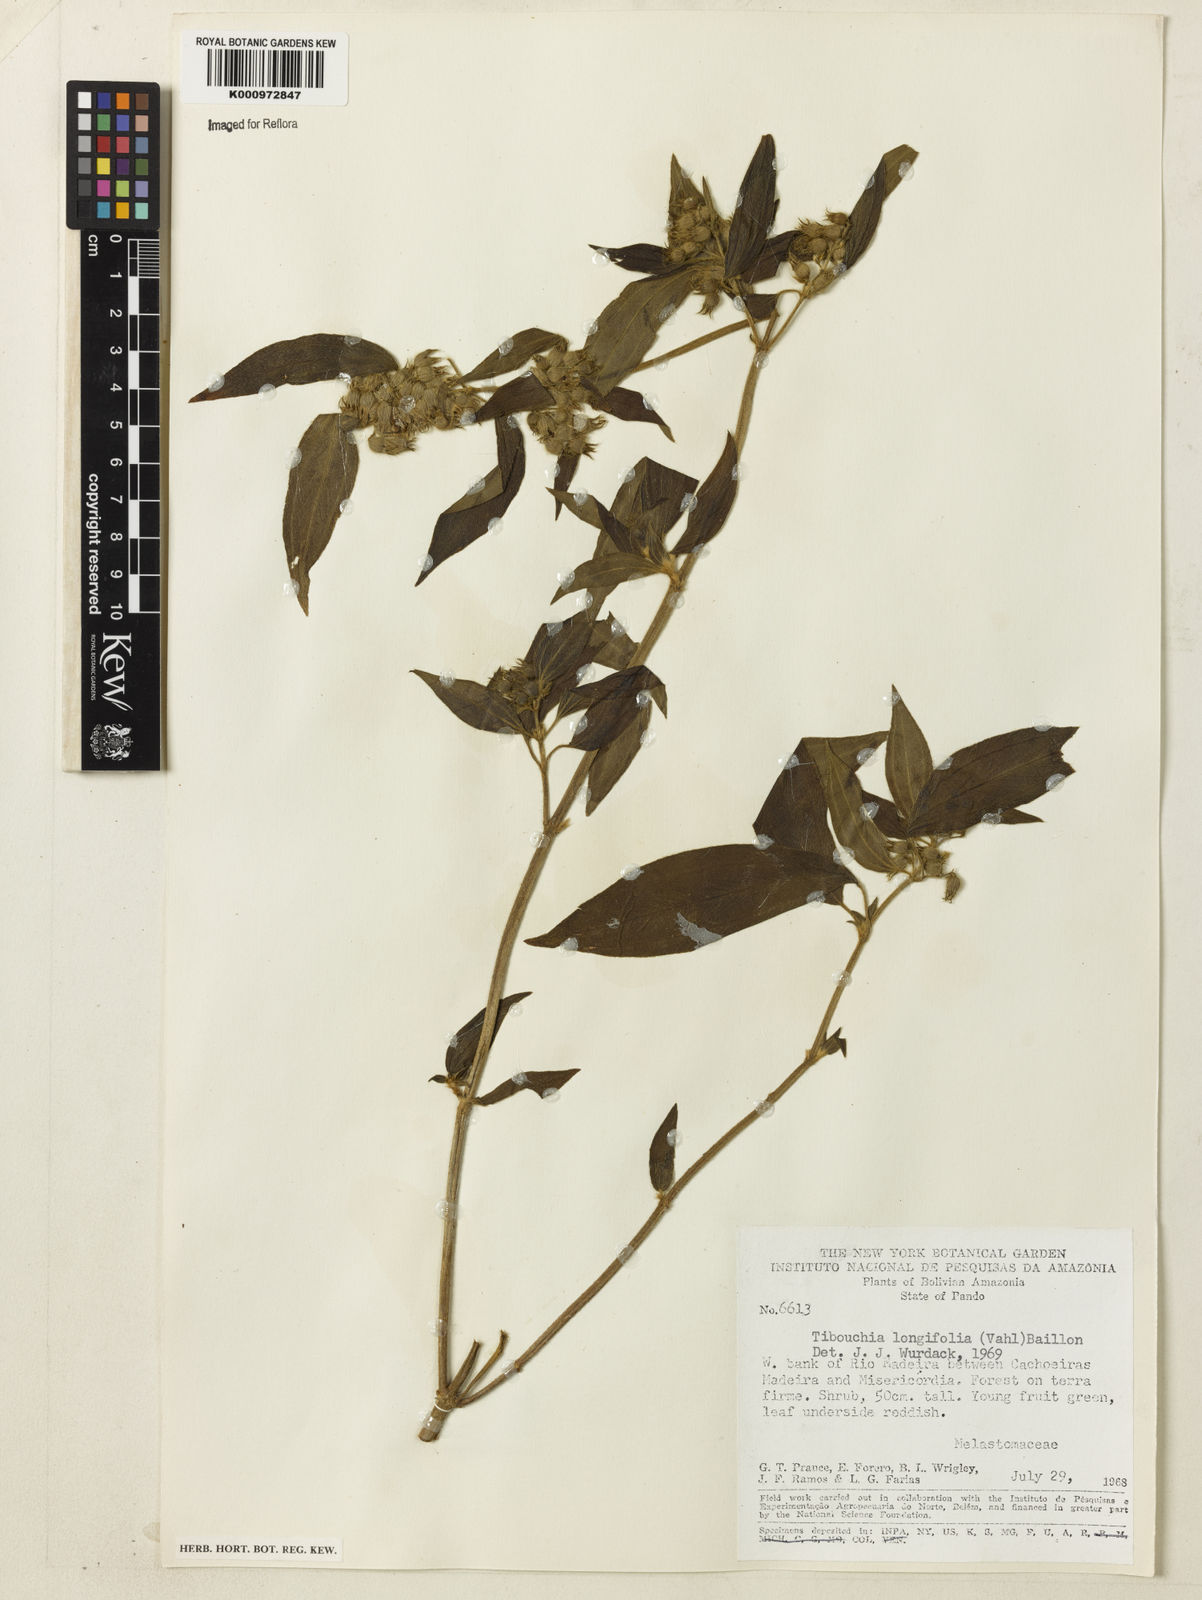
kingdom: Plantae
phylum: Tracheophyta
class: Magnoliopsida
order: Myrtales
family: Melastomataceae
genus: Chaetogastra
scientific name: Chaetogastra longifolia
